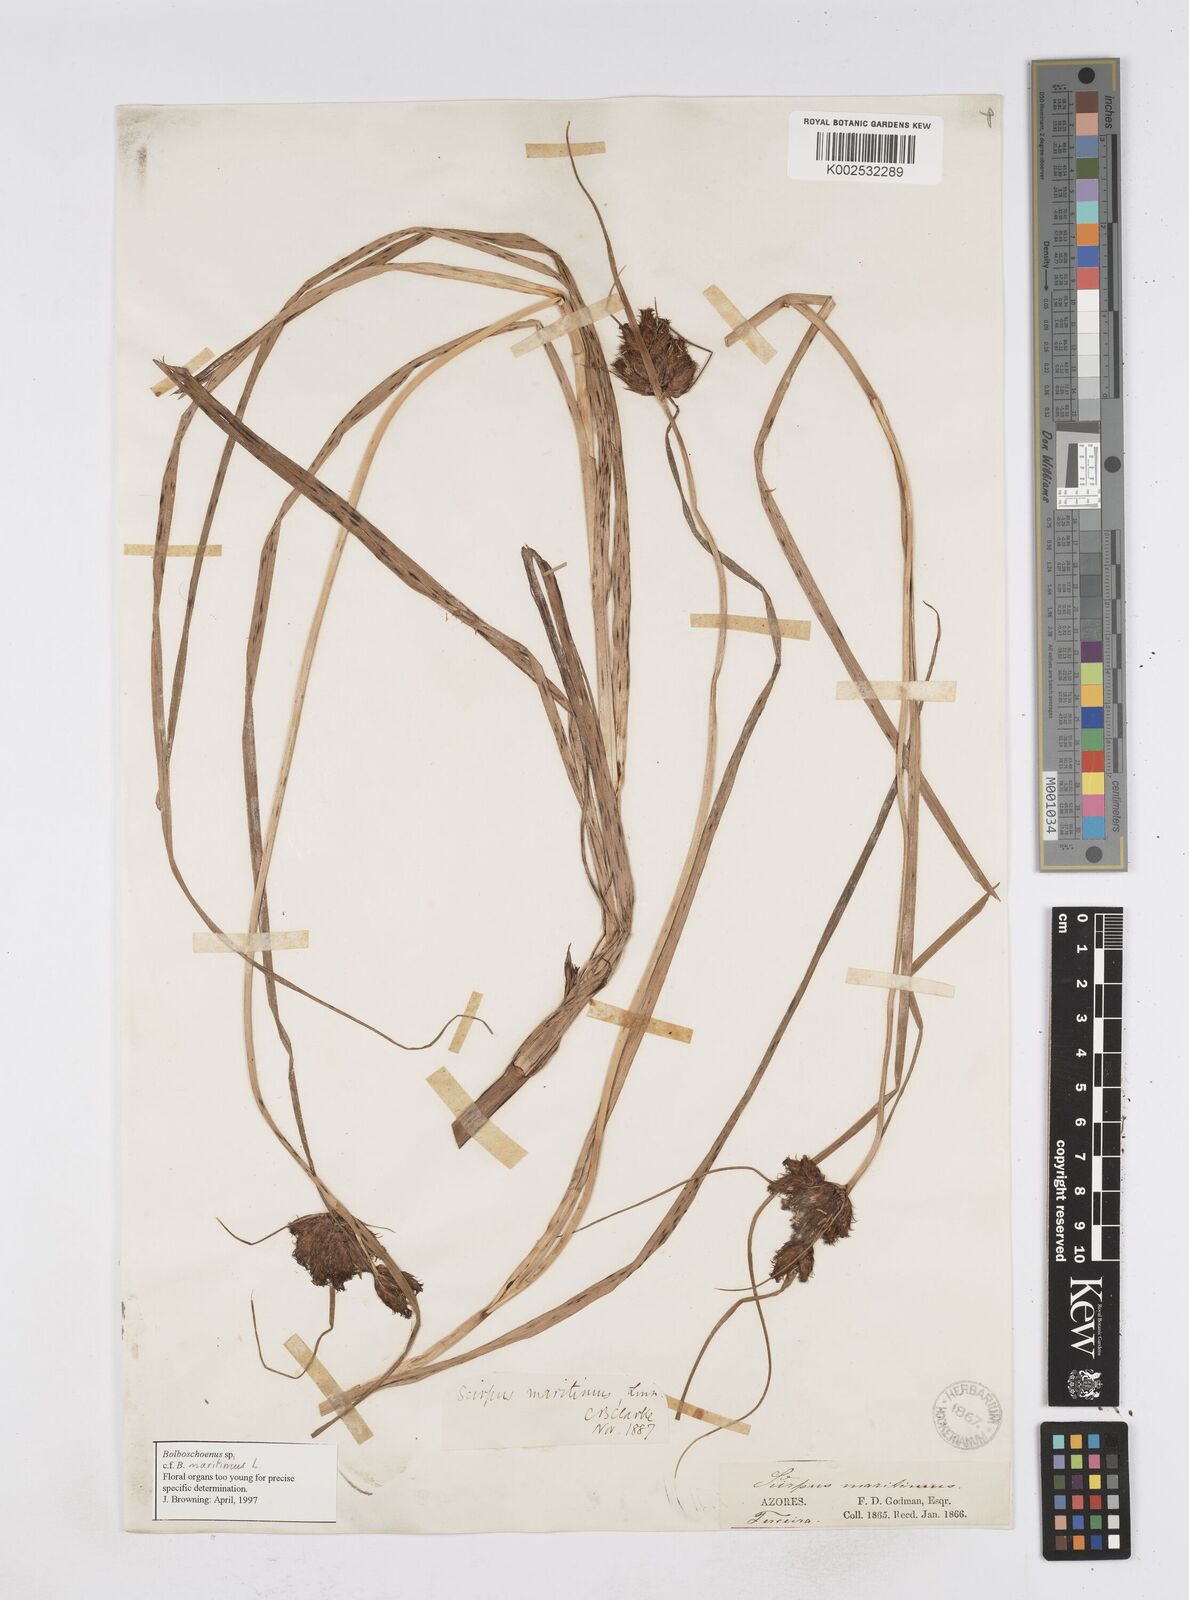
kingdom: Plantae
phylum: Tracheophyta
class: Liliopsida
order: Poales
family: Cyperaceae
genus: Bolboschoenus
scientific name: Bolboschoenus maritimus
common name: Sea club-rush
